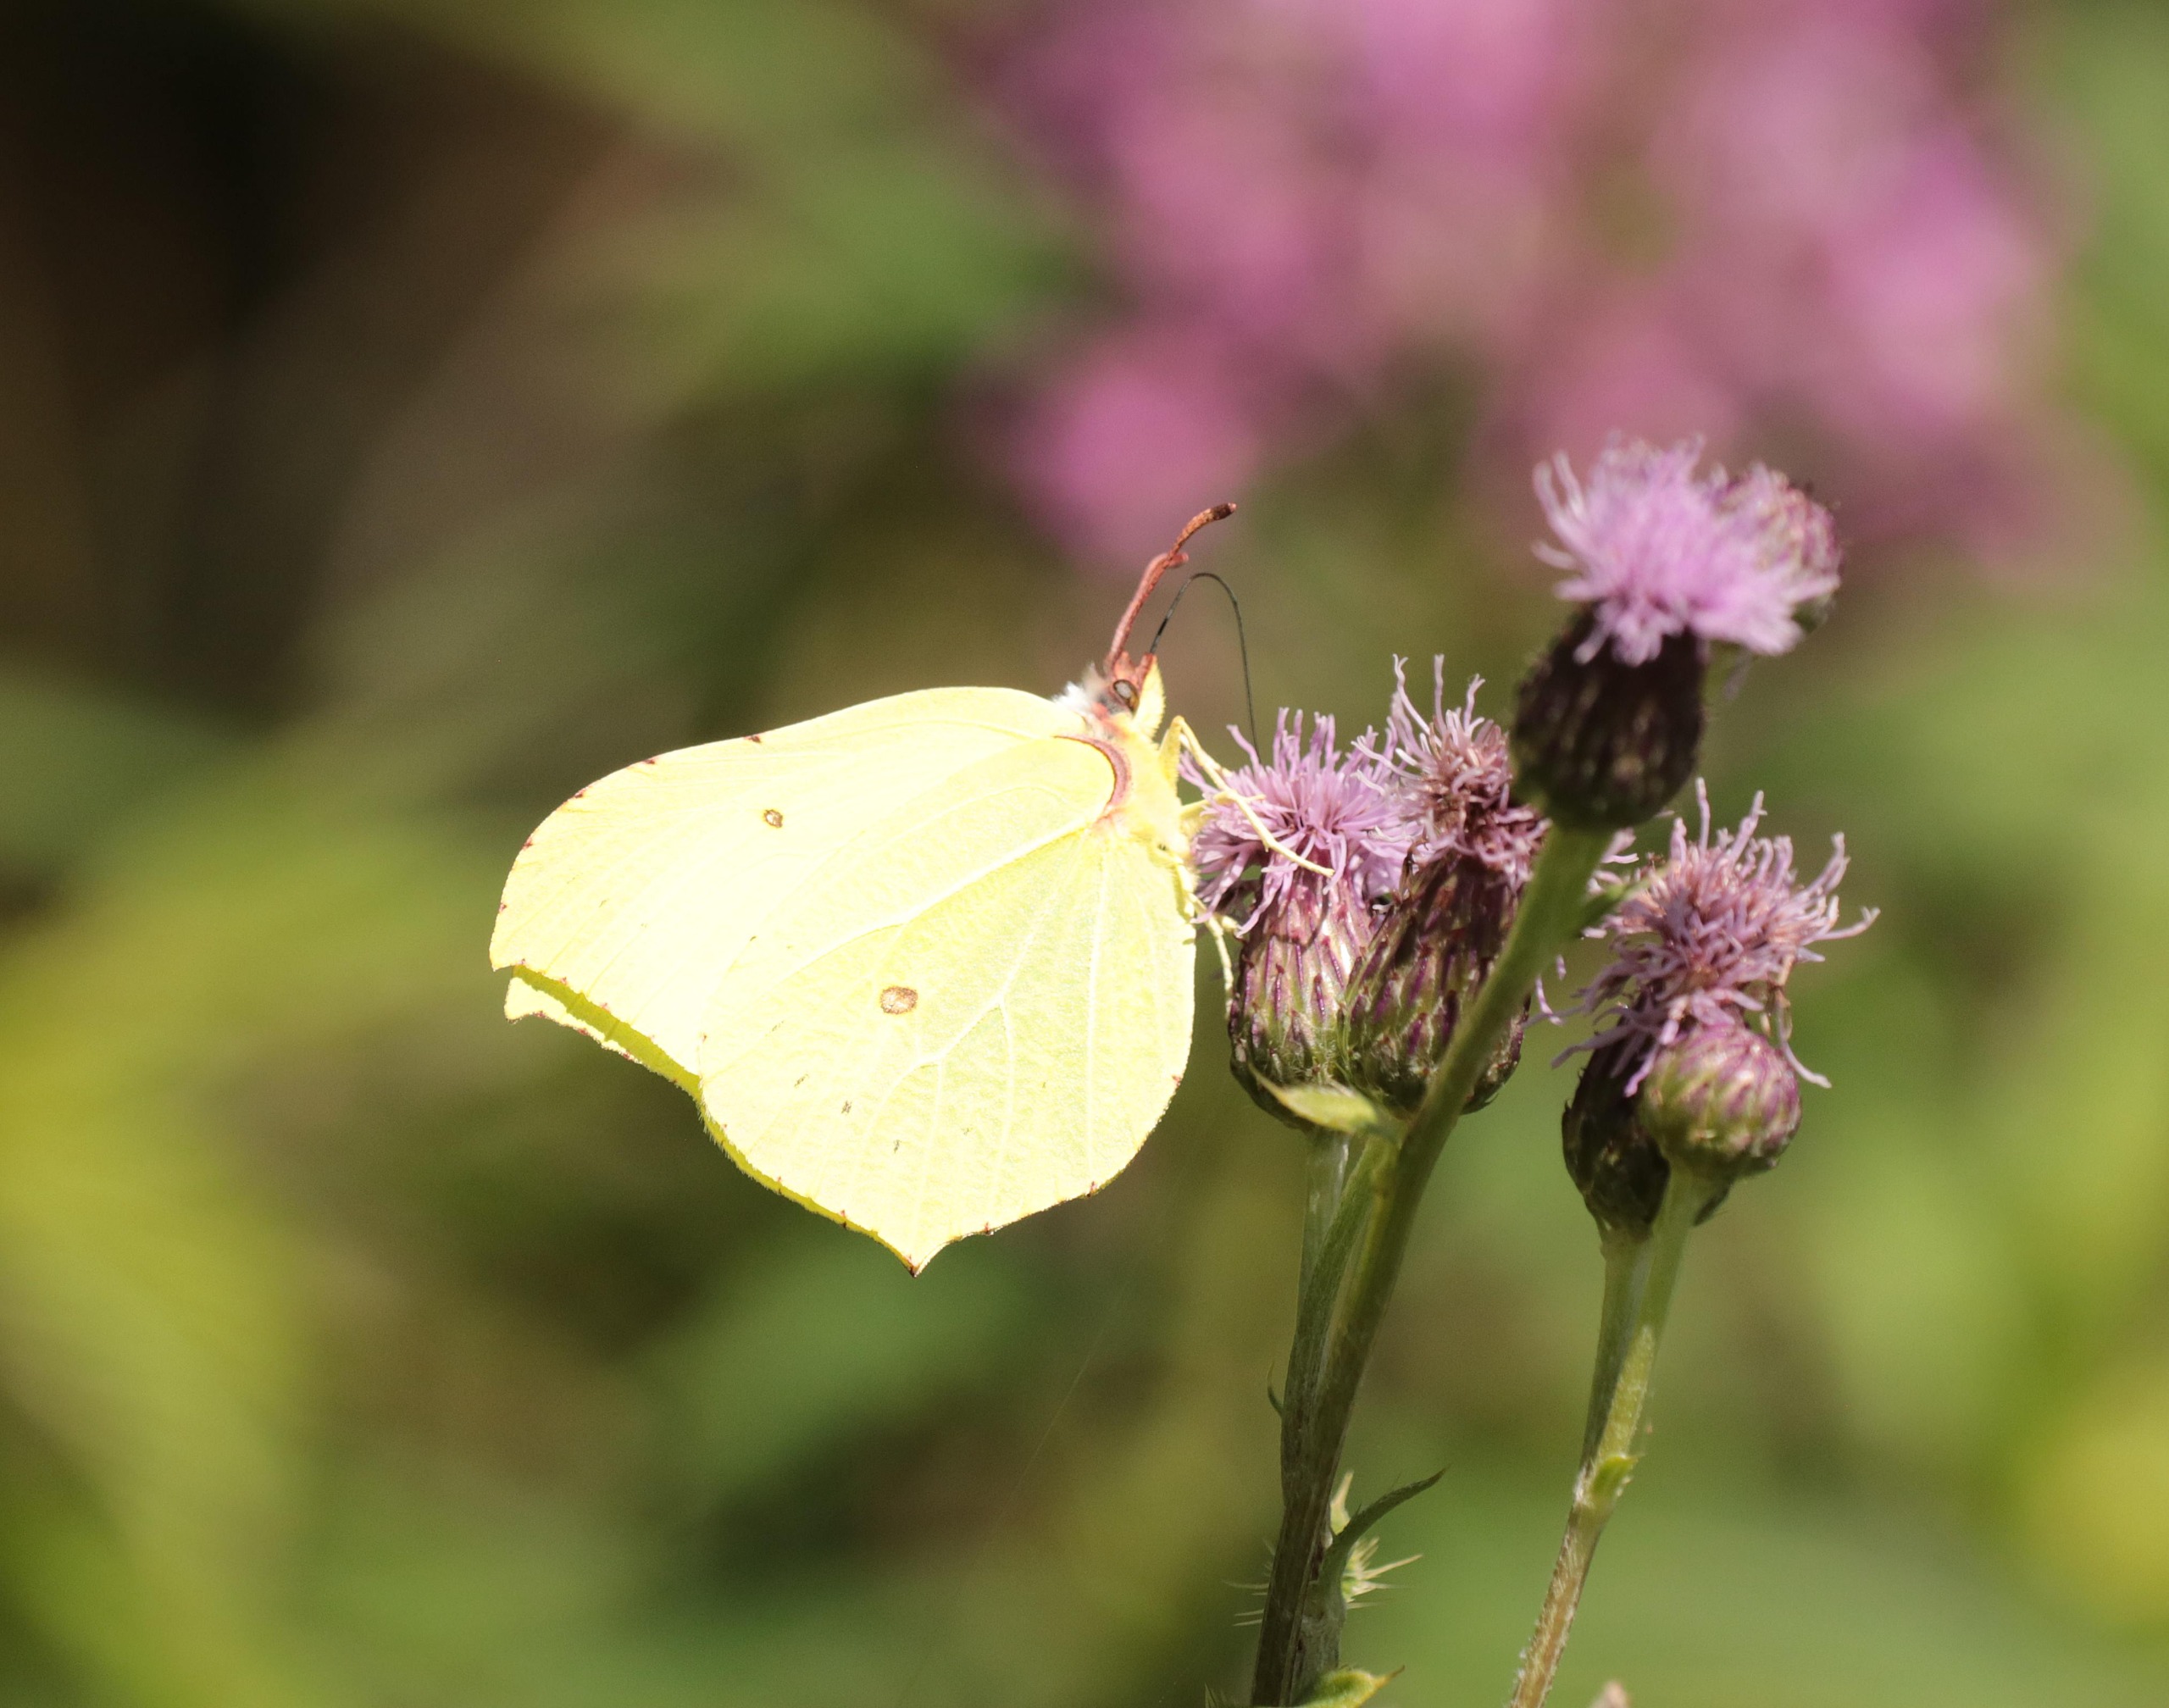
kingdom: Animalia
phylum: Arthropoda
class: Insecta
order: Lepidoptera
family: Pieridae
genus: Gonepteryx
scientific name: Gonepteryx rhamni
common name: Citronsommerfugl
